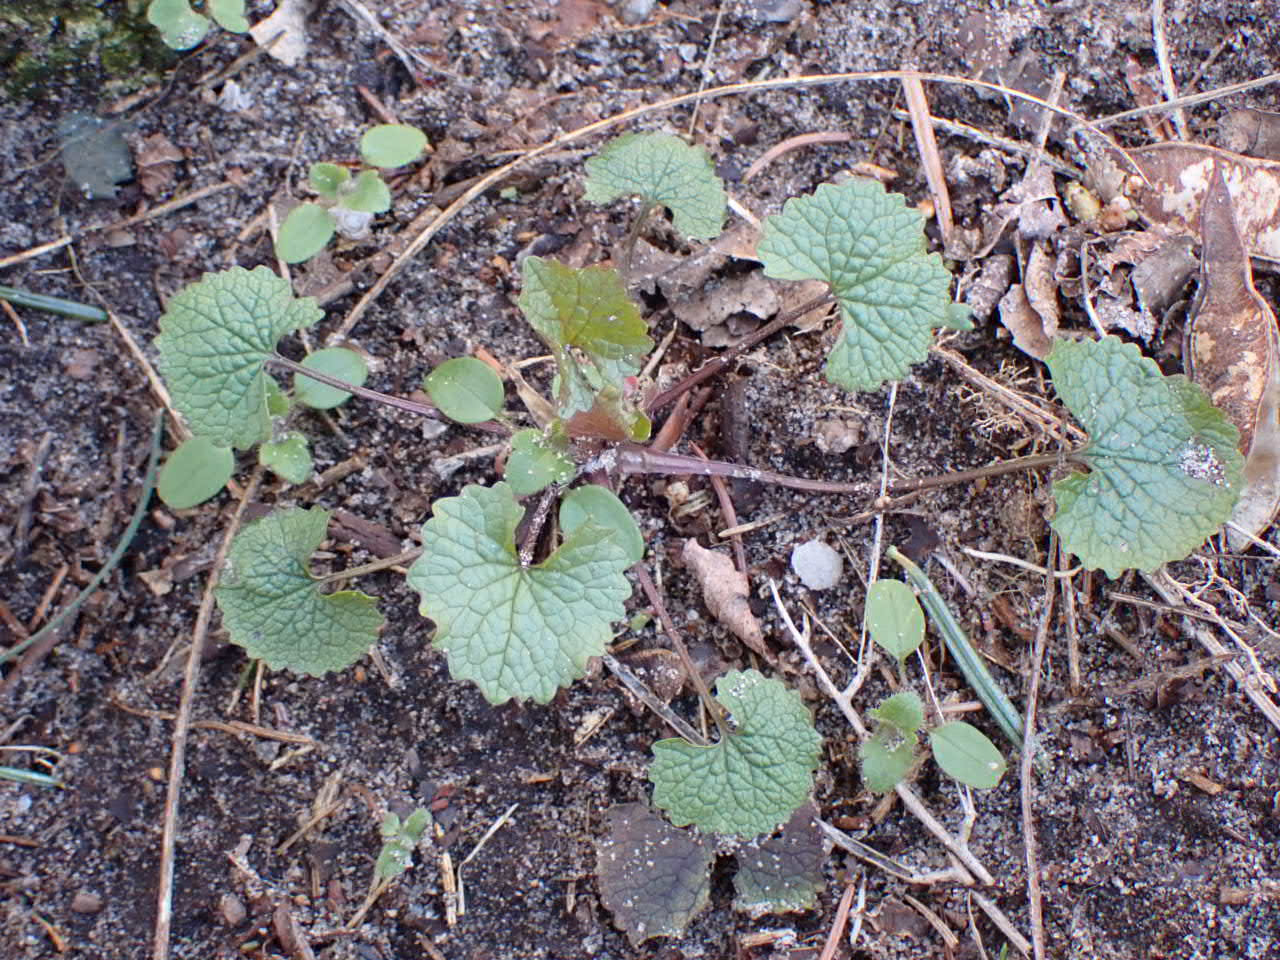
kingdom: Plantae
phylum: Tracheophyta
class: Magnoliopsida
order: Brassicales
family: Brassicaceae
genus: Alliaria
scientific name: Alliaria petiolata
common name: Løgkarse
